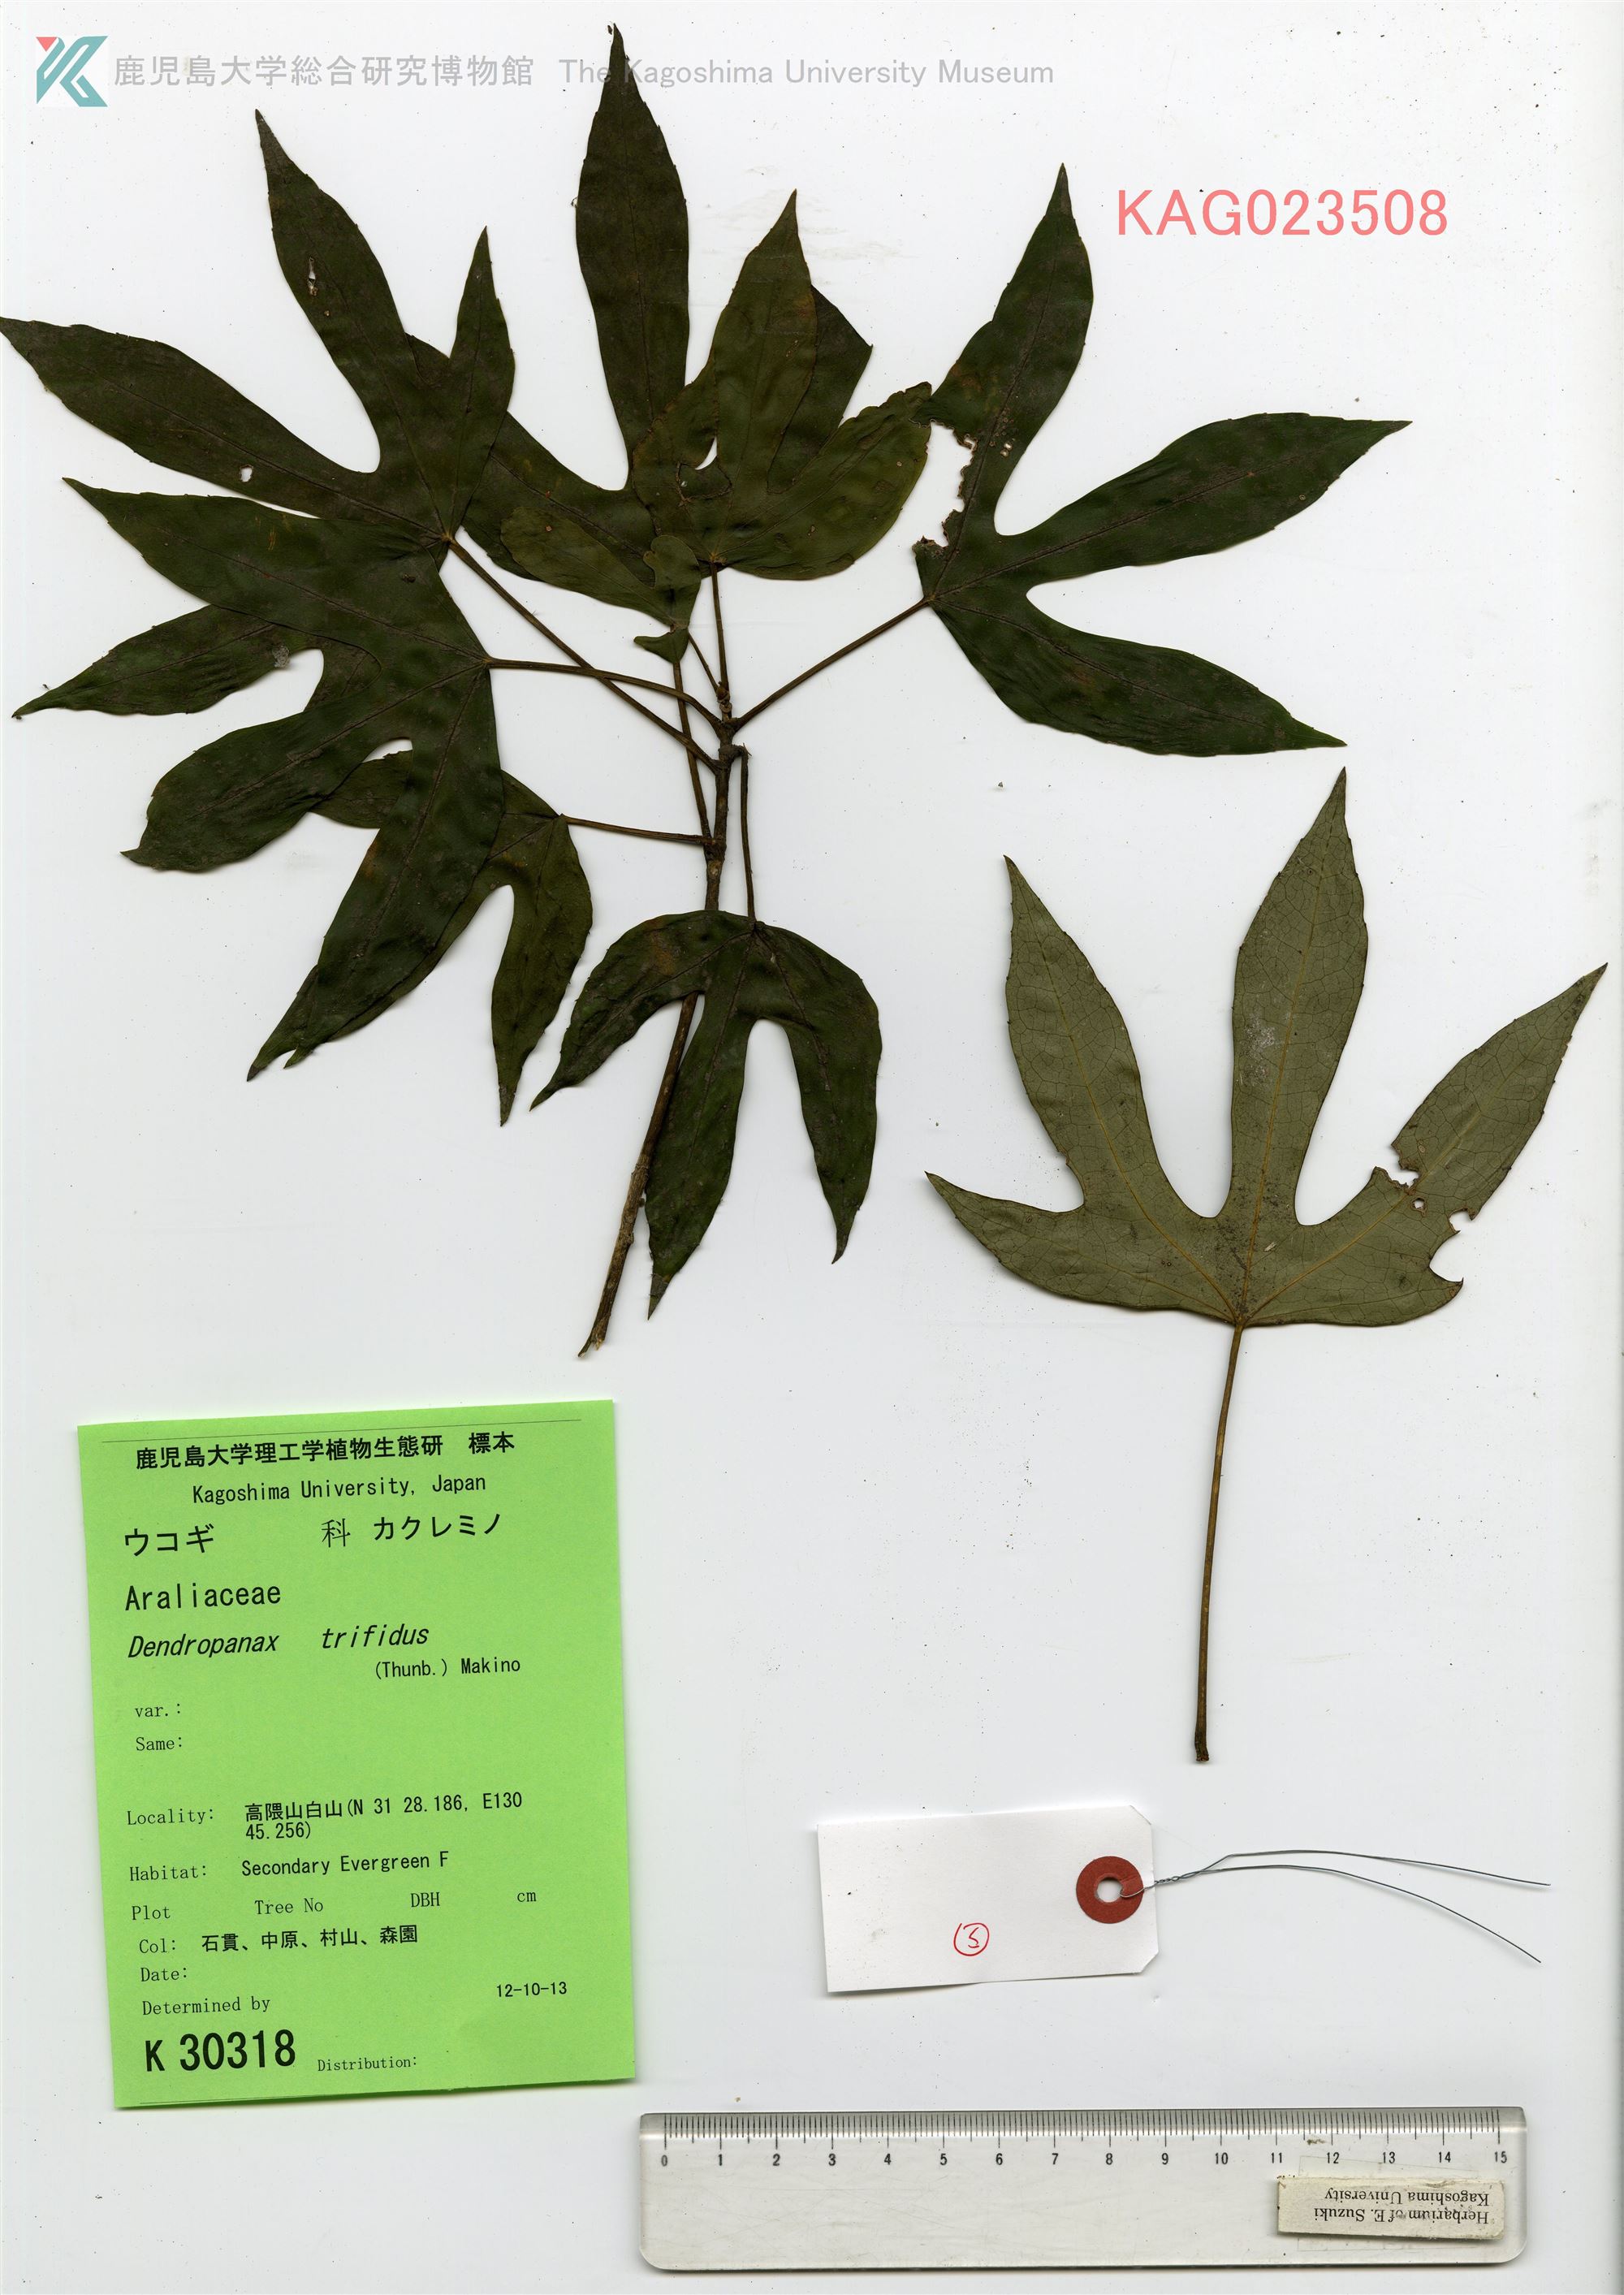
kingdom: Plantae
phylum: Tracheophyta
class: Magnoliopsida
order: Apiales
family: Araliaceae
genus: Dendropanax
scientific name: Dendropanax trifidus
